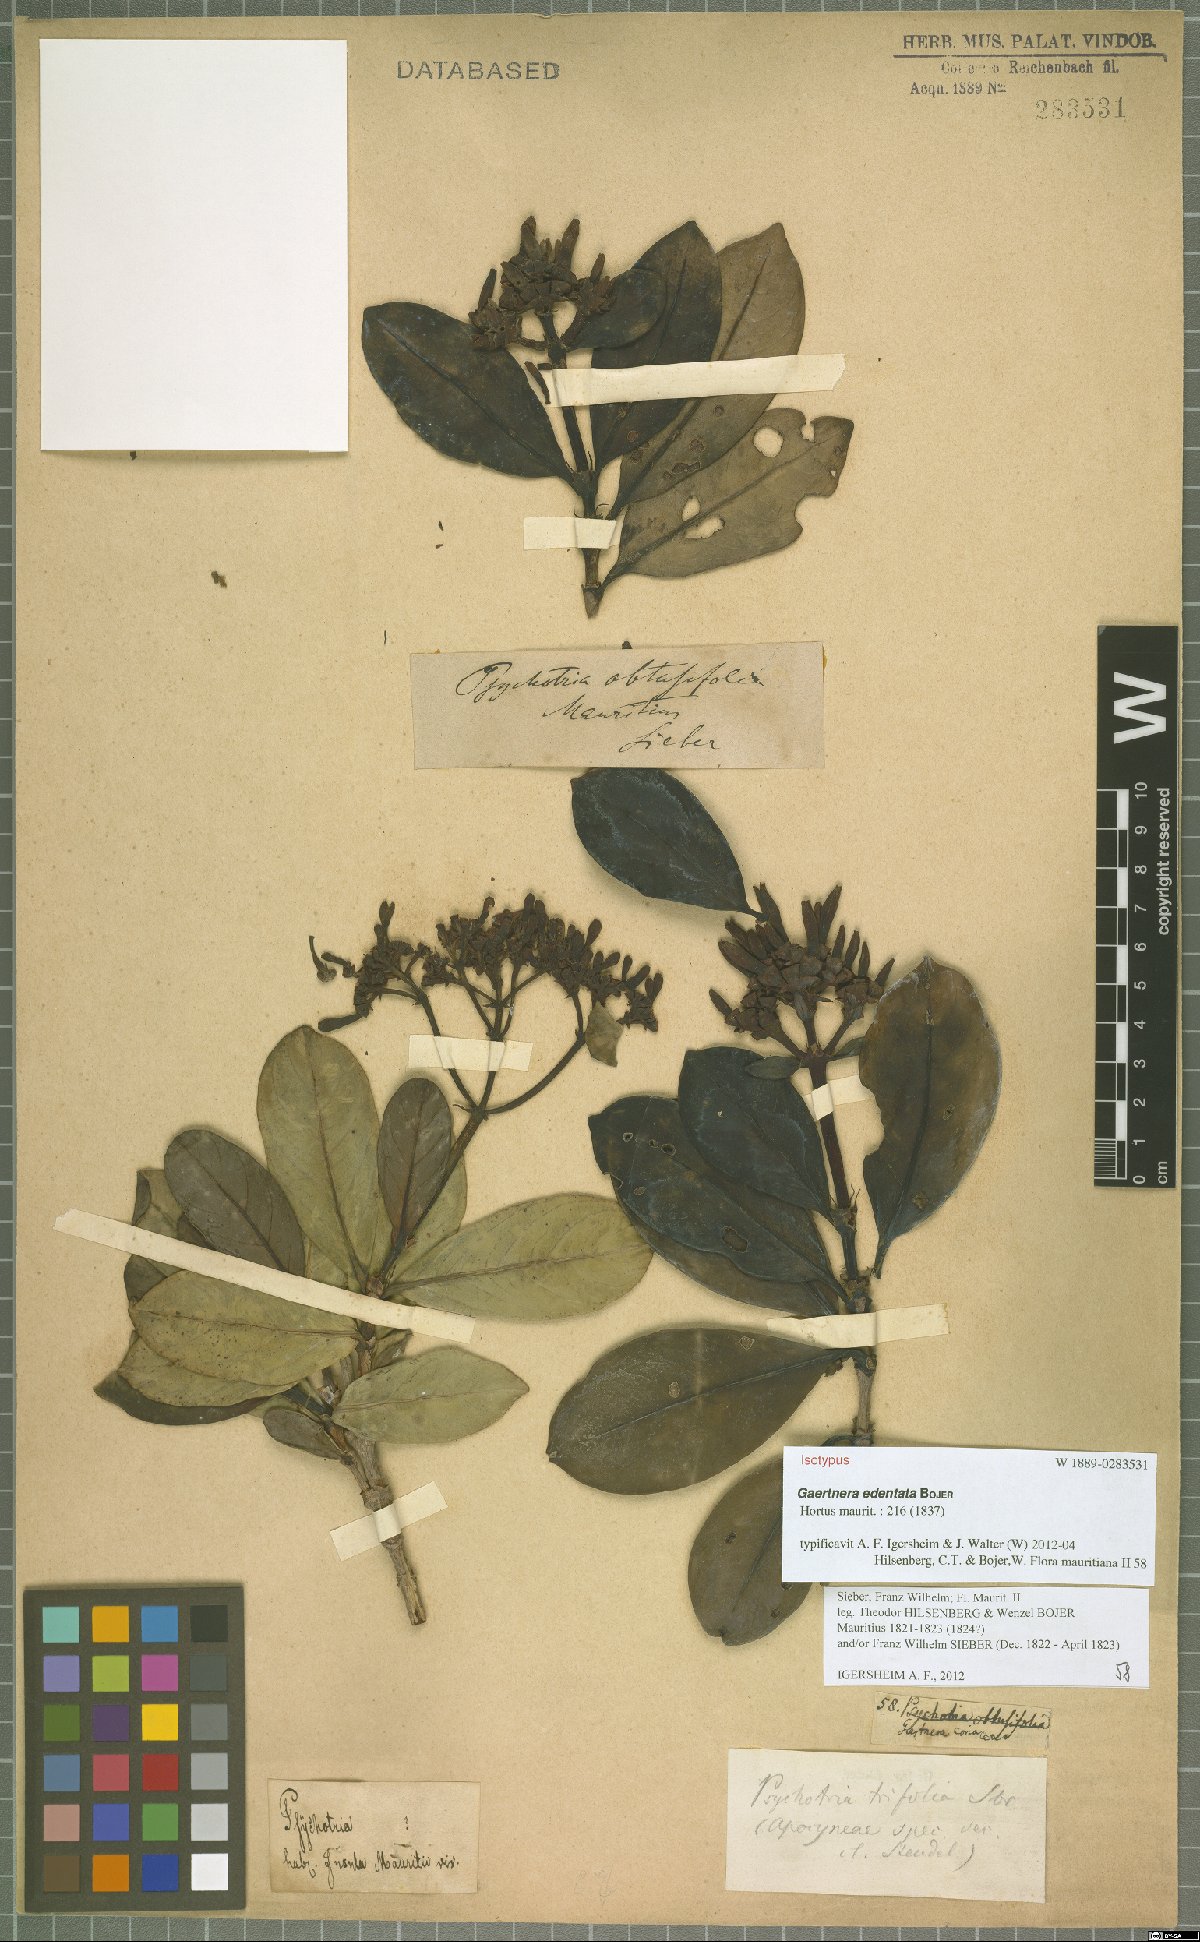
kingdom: Plantae
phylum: Tracheophyta
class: Magnoliopsida
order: Gentianales
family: Rubiaceae
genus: Gaertnera
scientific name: Gaertnera edentata
